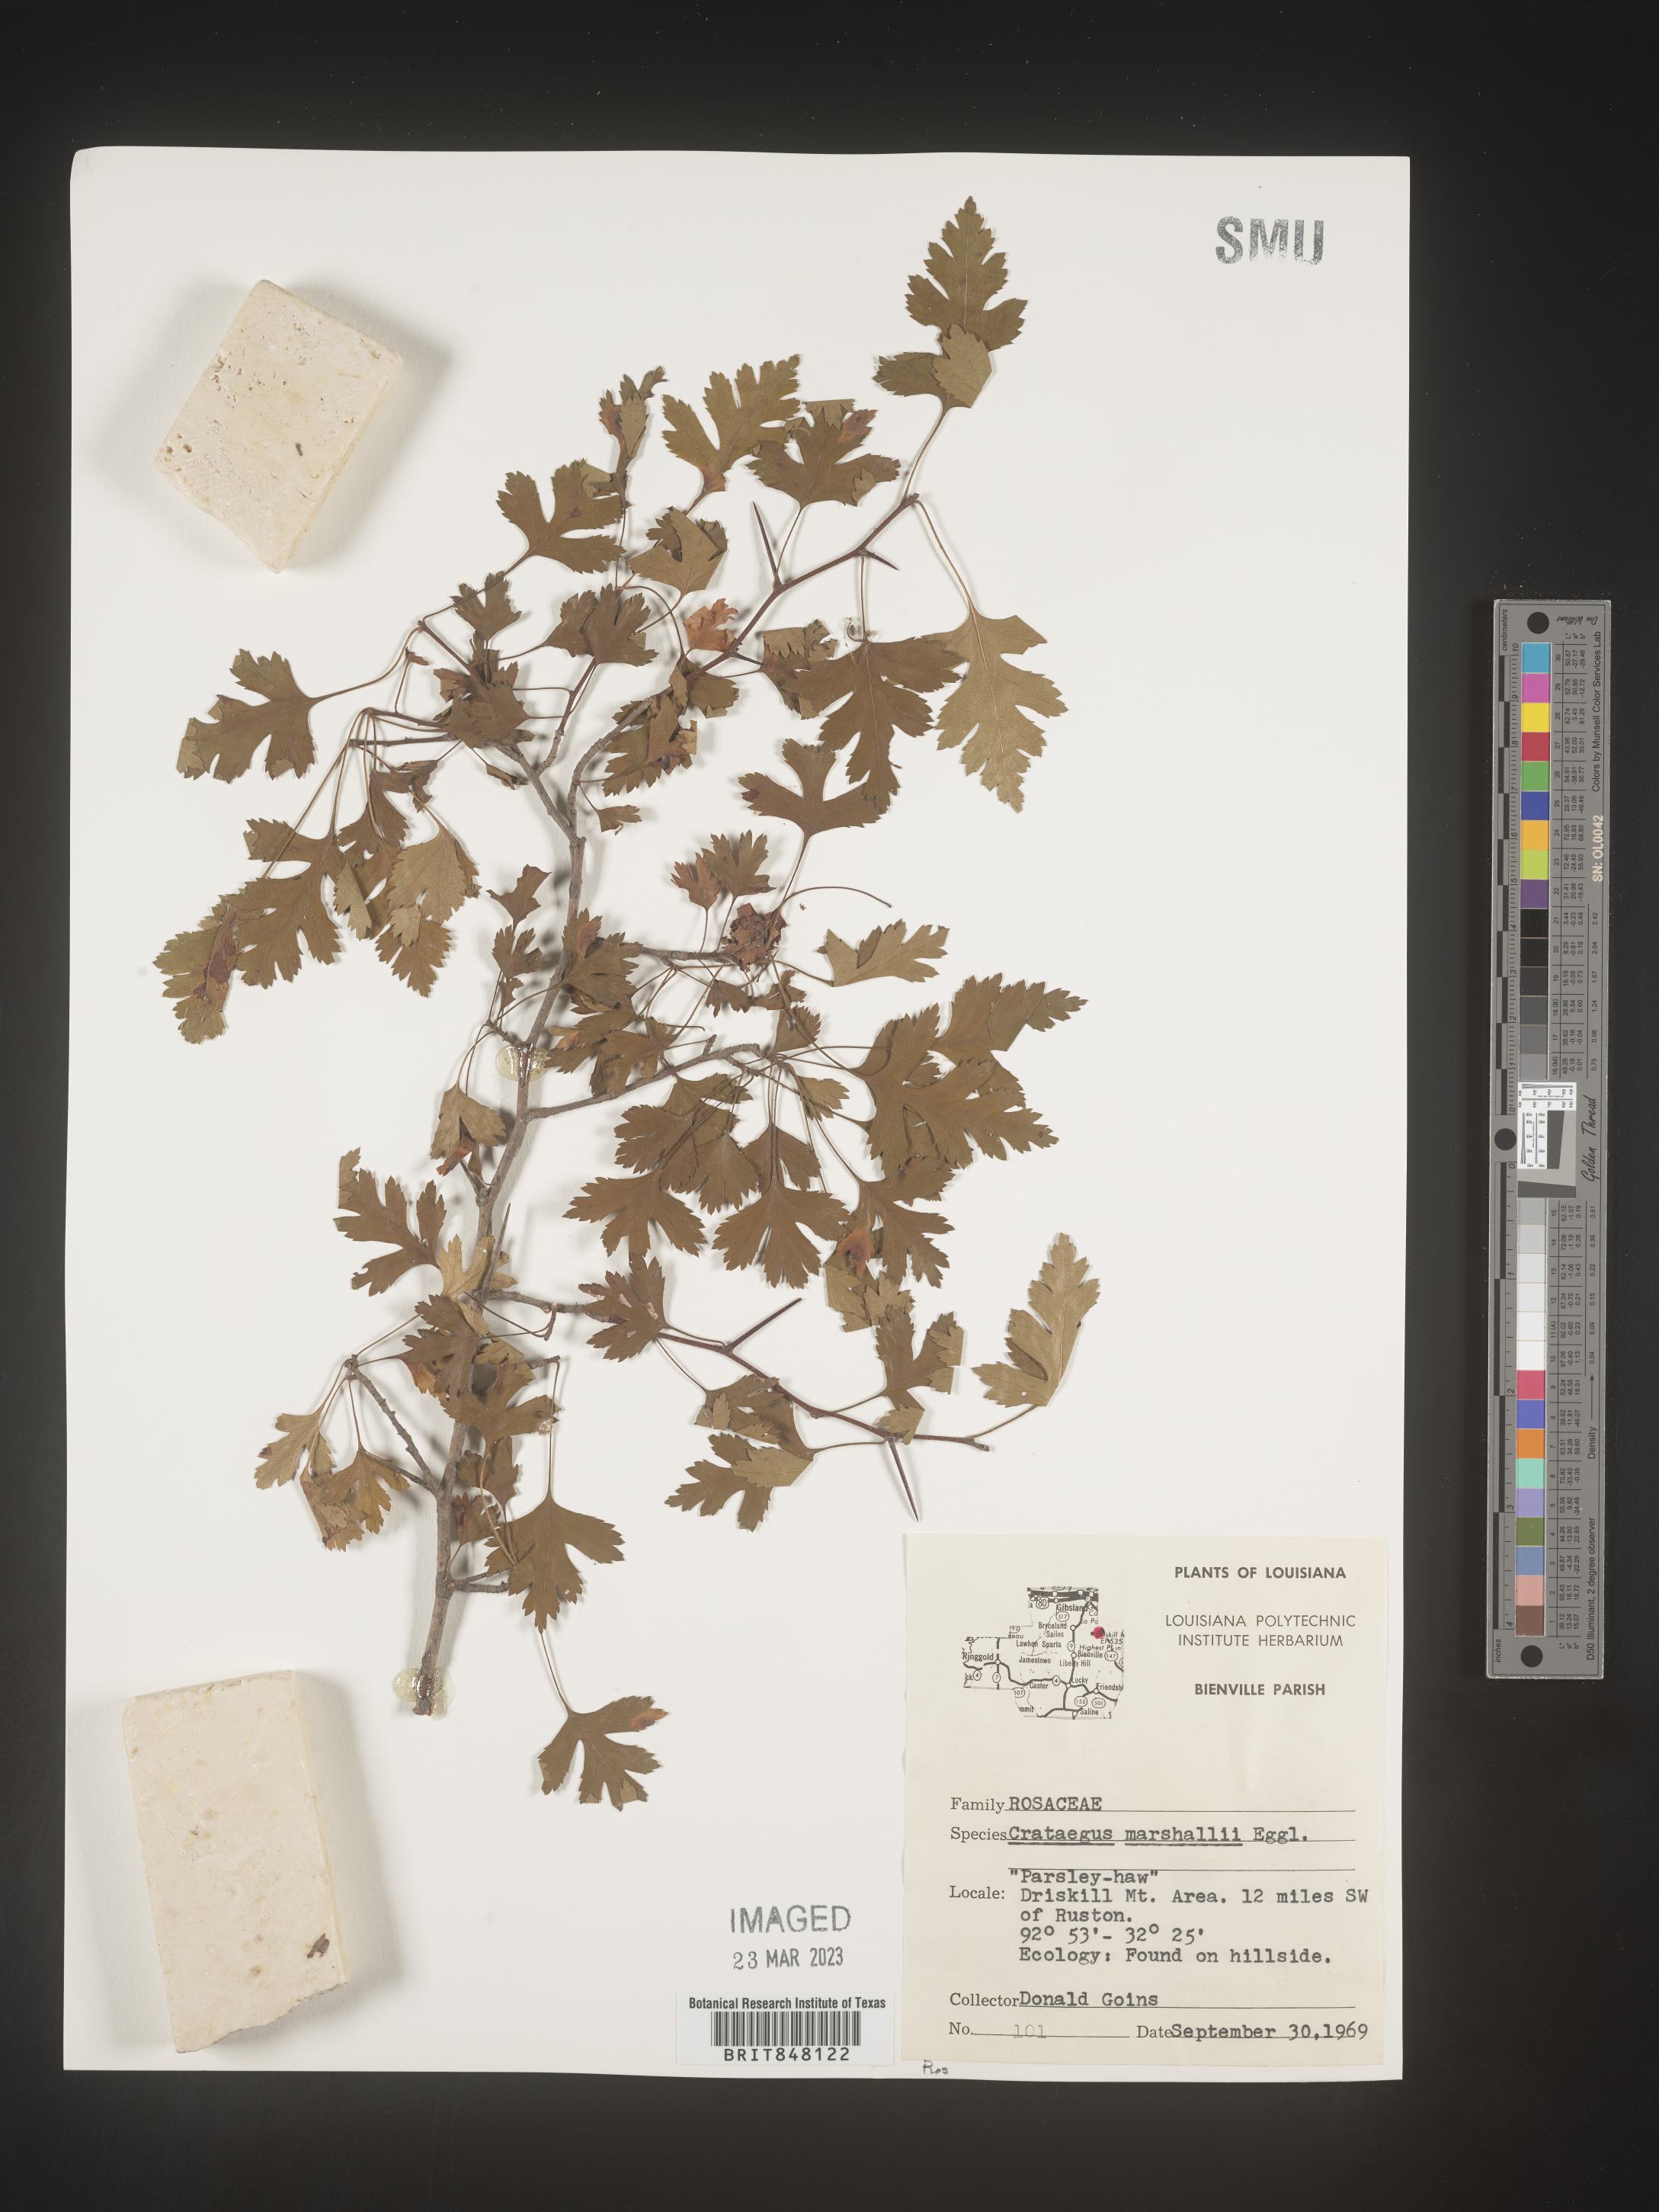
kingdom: Plantae
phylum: Tracheophyta
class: Magnoliopsida
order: Rosales
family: Rosaceae
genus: Crataegus
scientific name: Crataegus marshallii
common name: Parsley-hawthorn
